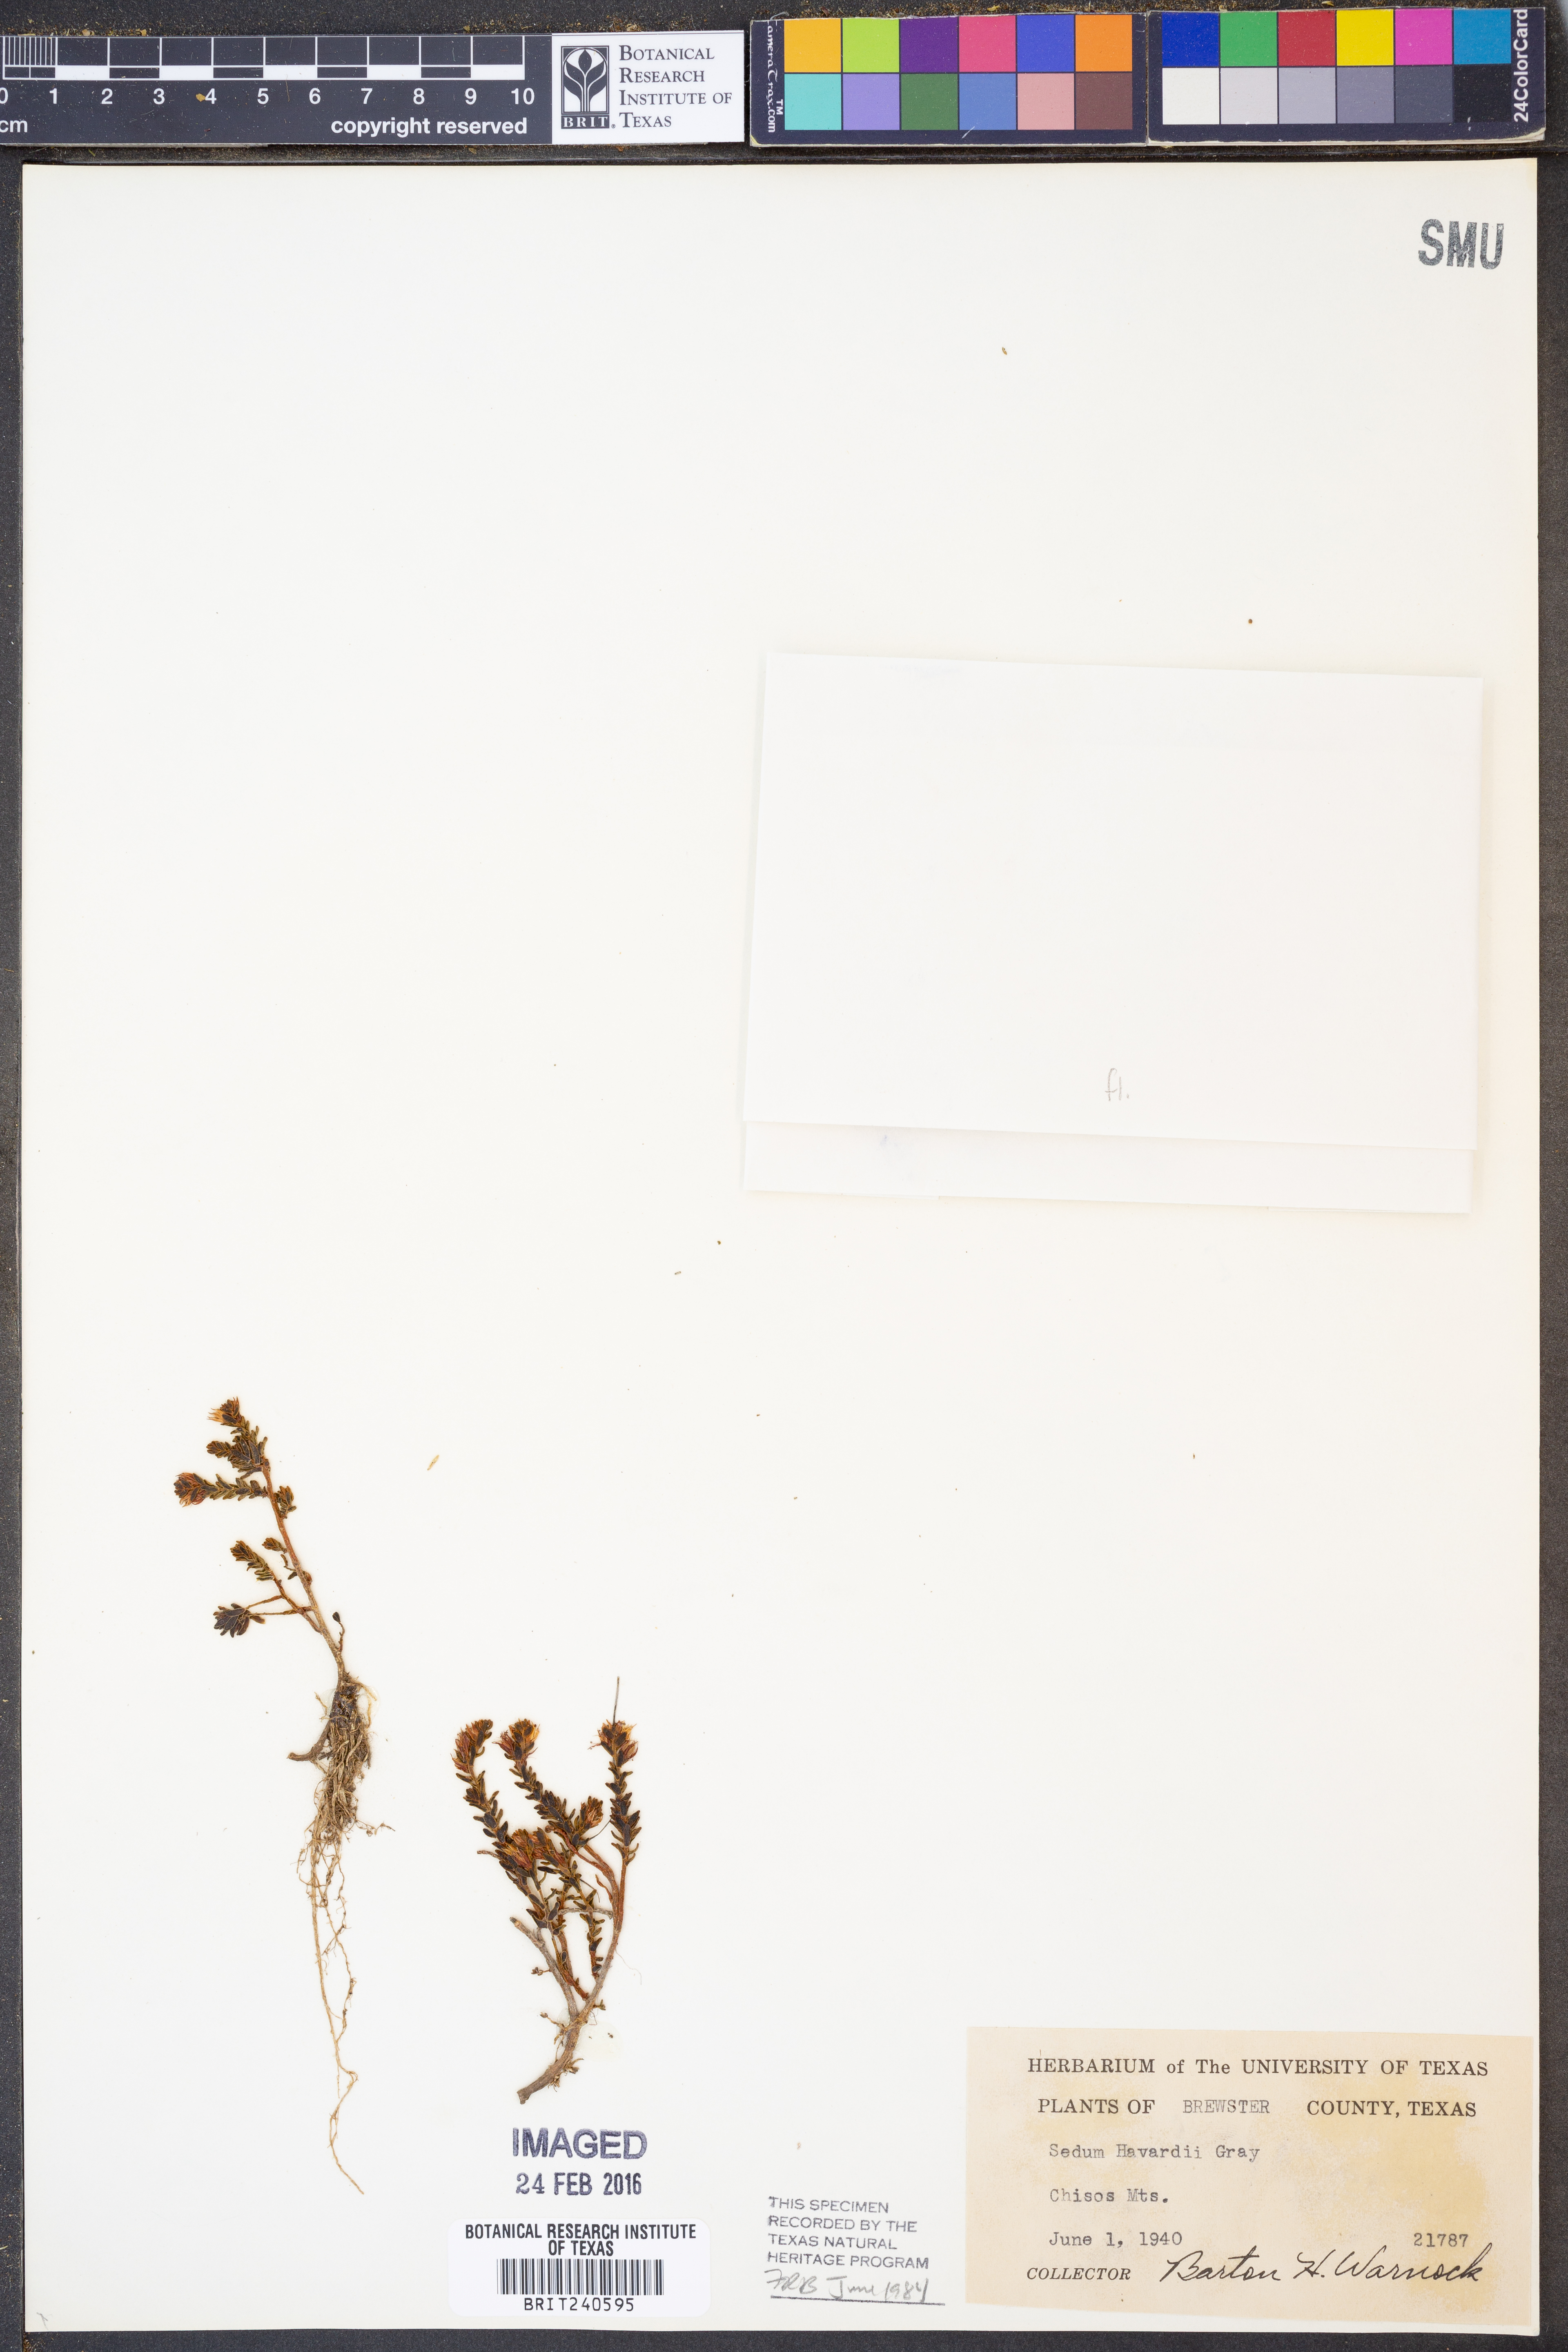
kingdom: Plantae
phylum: Tracheophyta
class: Magnoliopsida
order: Saxifragales
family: Crassulaceae
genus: Sedum
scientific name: Sedum havardii
